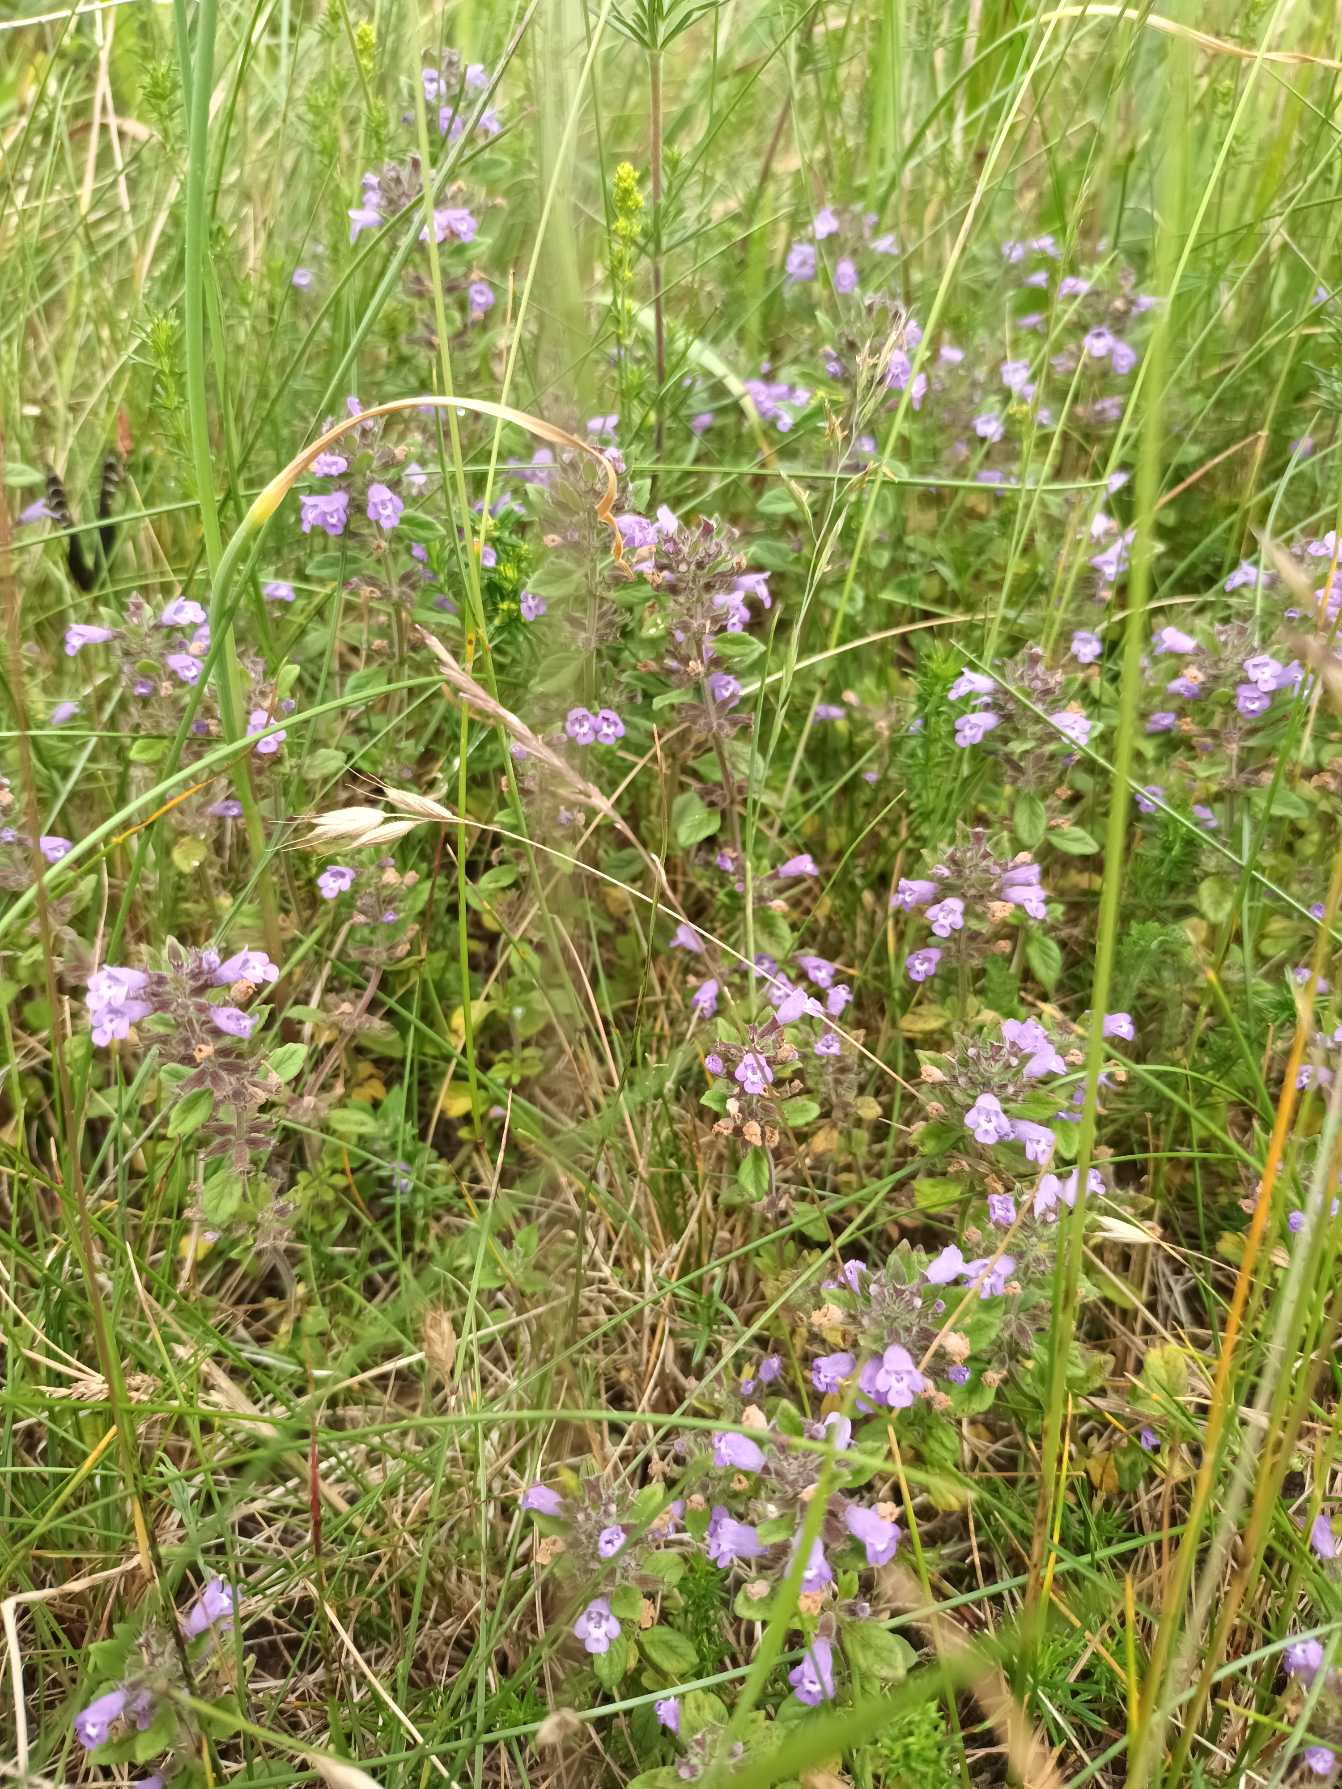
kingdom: Plantae
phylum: Tracheophyta
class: Magnoliopsida
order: Lamiales
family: Lamiaceae
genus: Clinopodium
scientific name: Clinopodium acinos
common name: Voldtimian
